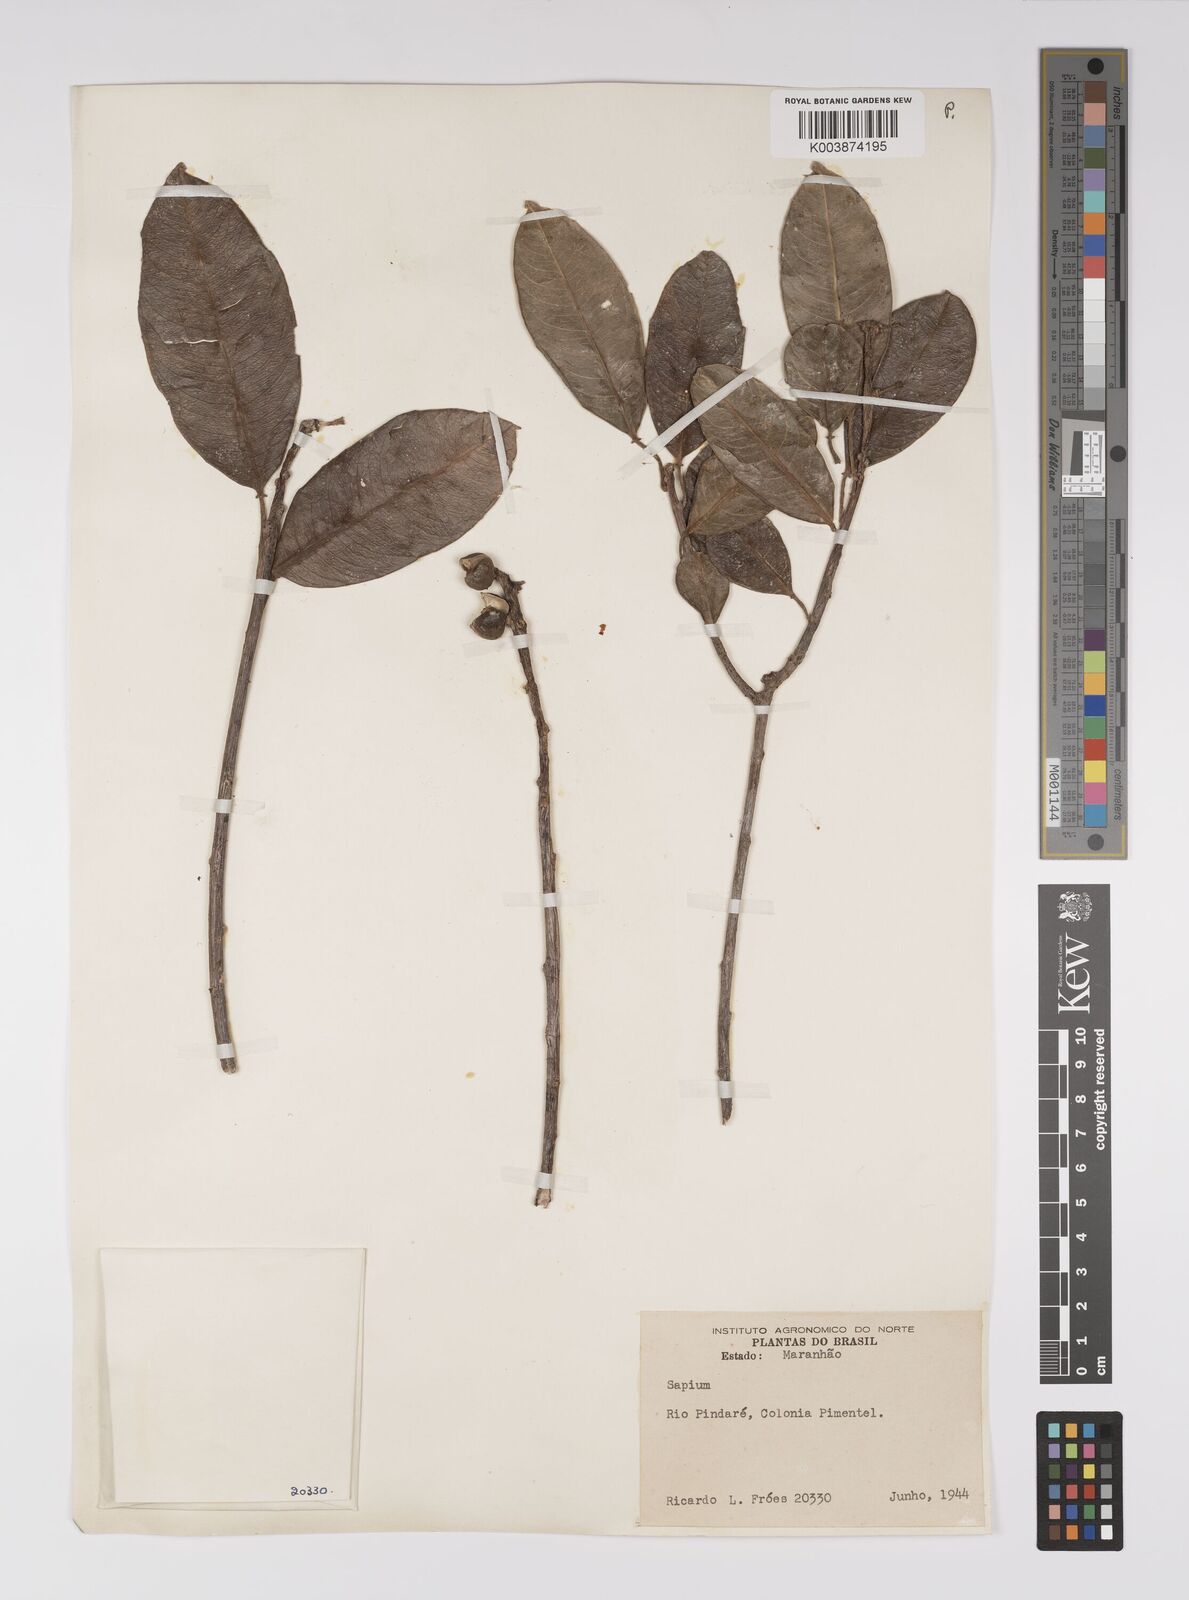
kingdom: Plantae
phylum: Tracheophyta
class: Magnoliopsida
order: Malpighiales
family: Euphorbiaceae
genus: Sapium
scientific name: Sapium
